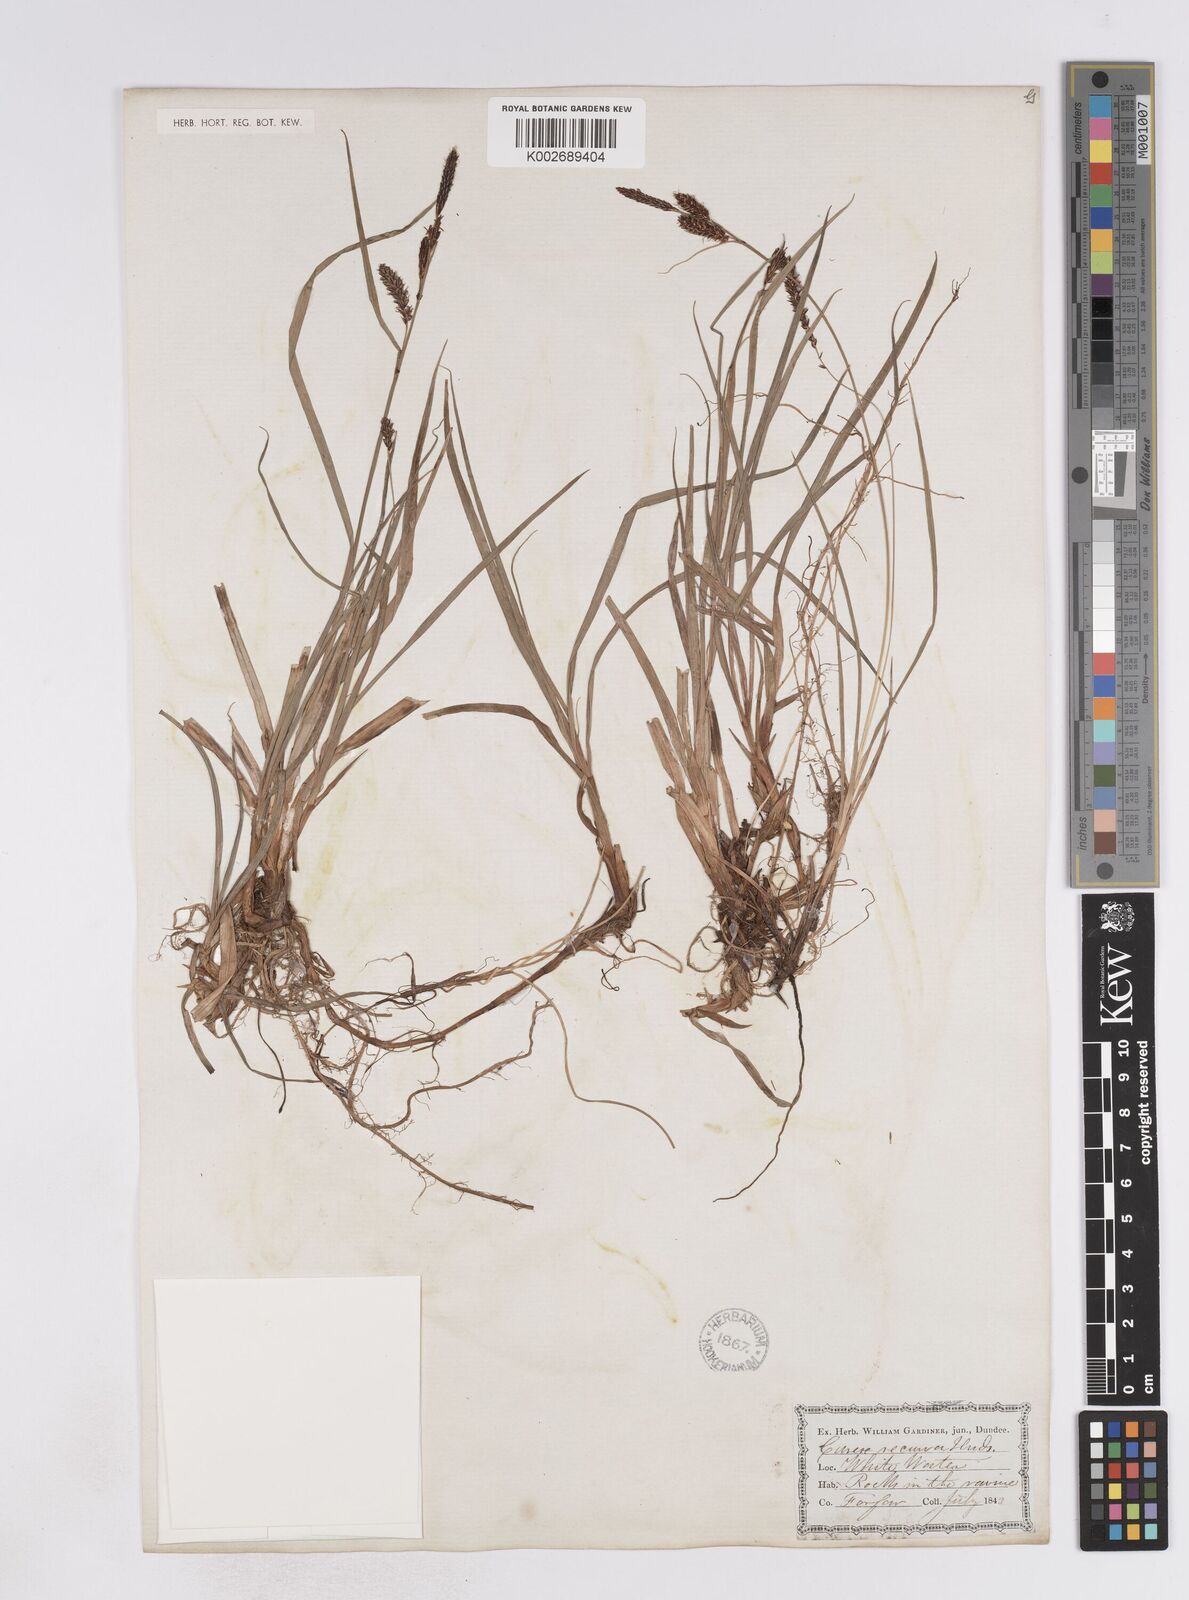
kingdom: Plantae
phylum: Tracheophyta
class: Liliopsida
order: Poales
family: Cyperaceae
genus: Carex
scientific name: Carex flacca
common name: Glaucous sedge
